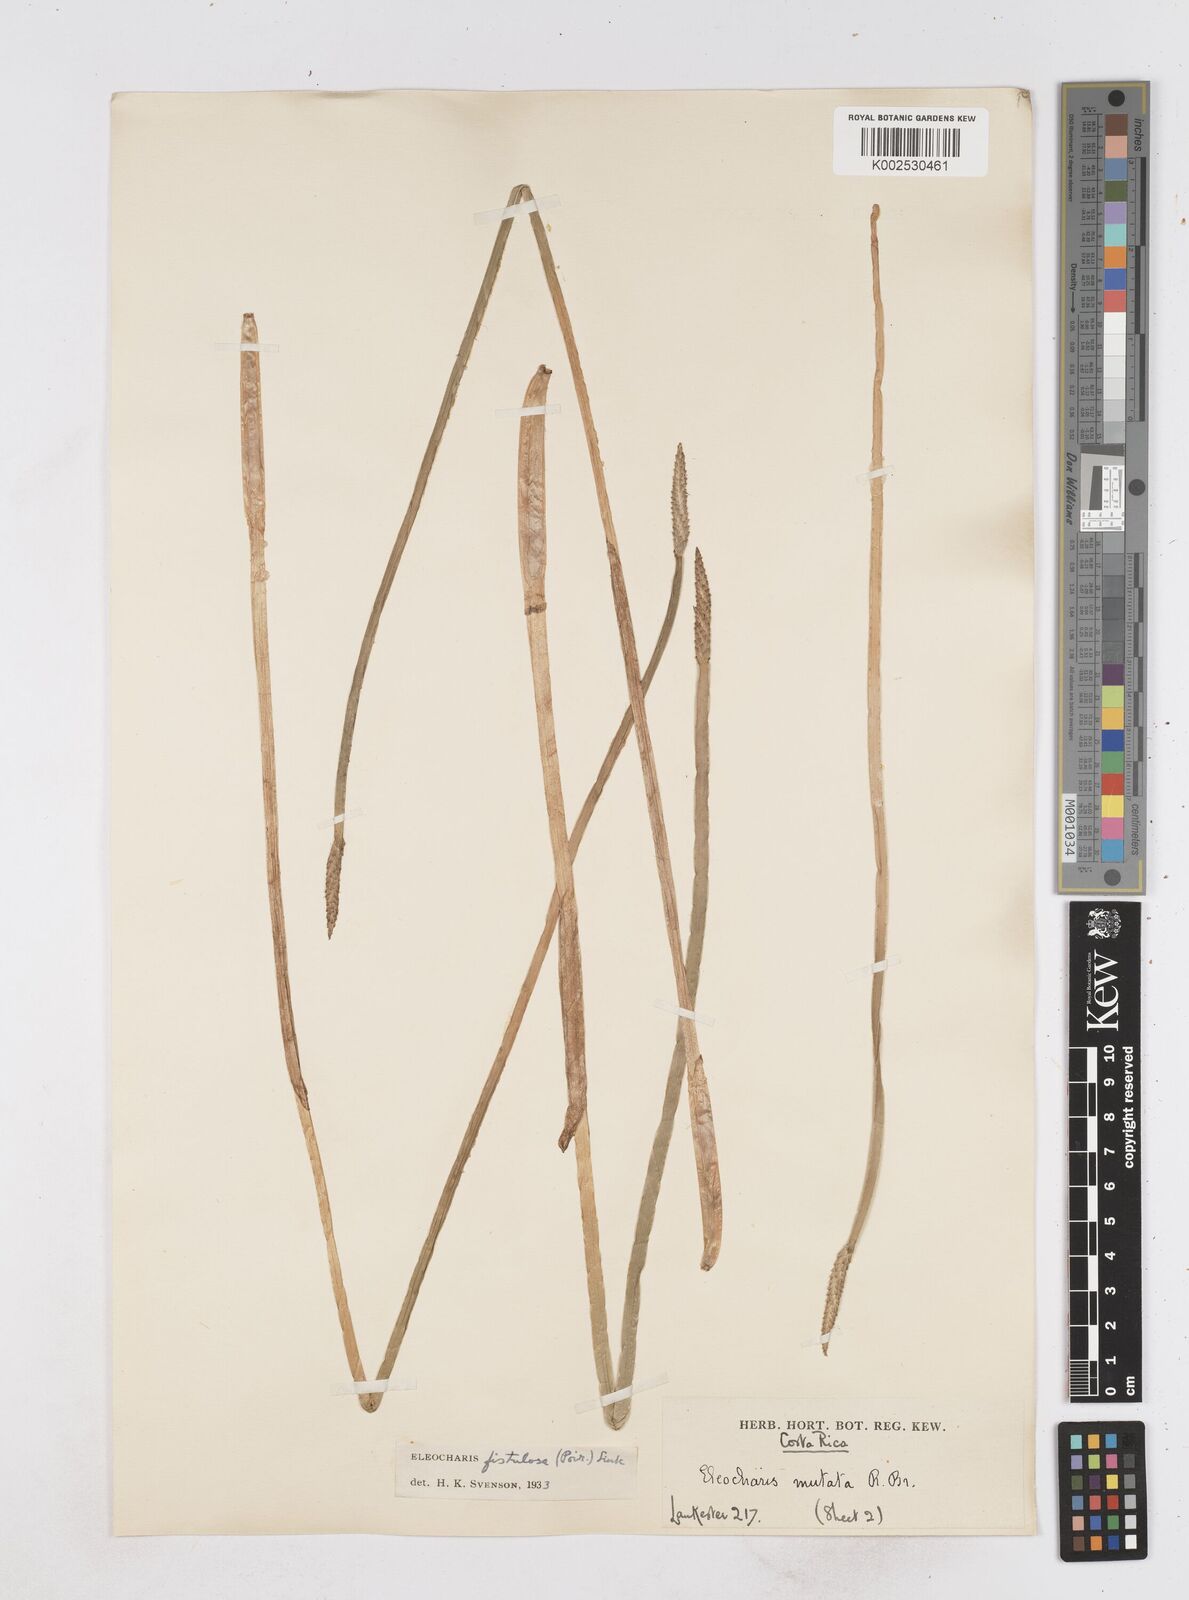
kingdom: Plantae
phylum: Tracheophyta
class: Liliopsida
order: Poales
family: Cyperaceae
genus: Eleocharis
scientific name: Eleocharis acutangula
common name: Acute spikerush
